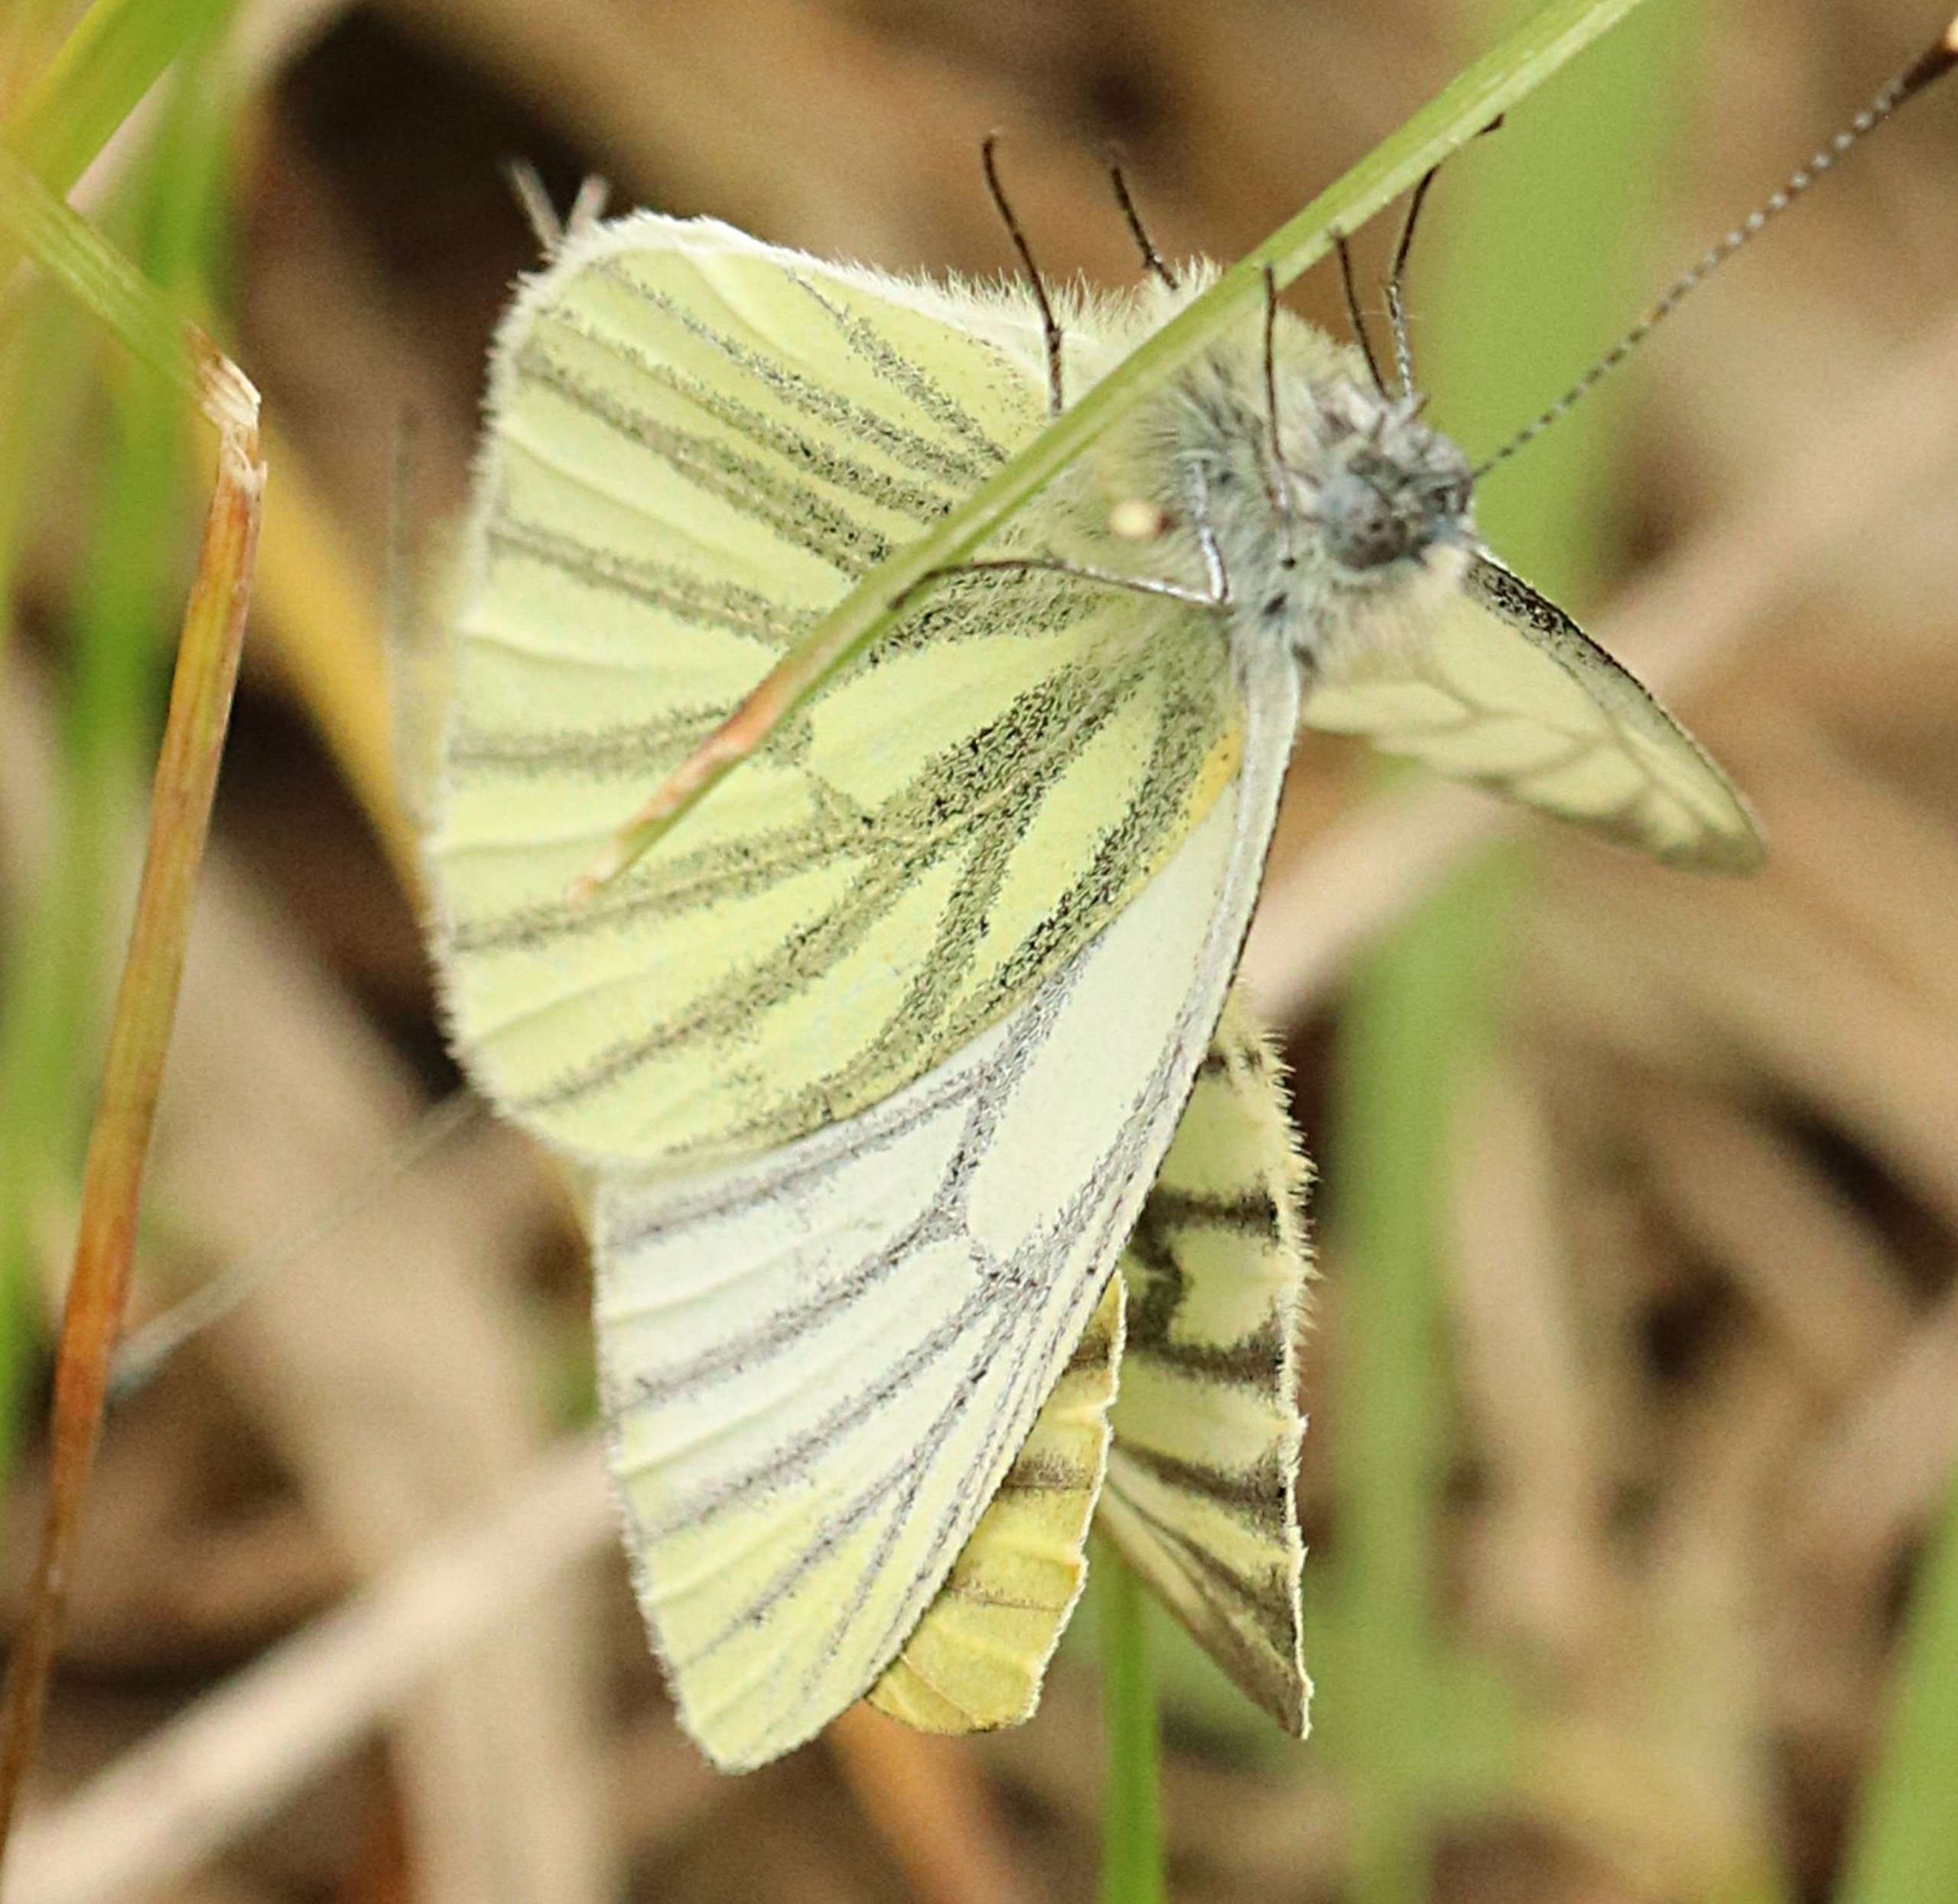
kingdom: Animalia
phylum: Arthropoda
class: Insecta
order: Lepidoptera
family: Pieridae
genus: Pieris
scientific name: Pieris napi
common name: Grønåret kålsommerfugl
